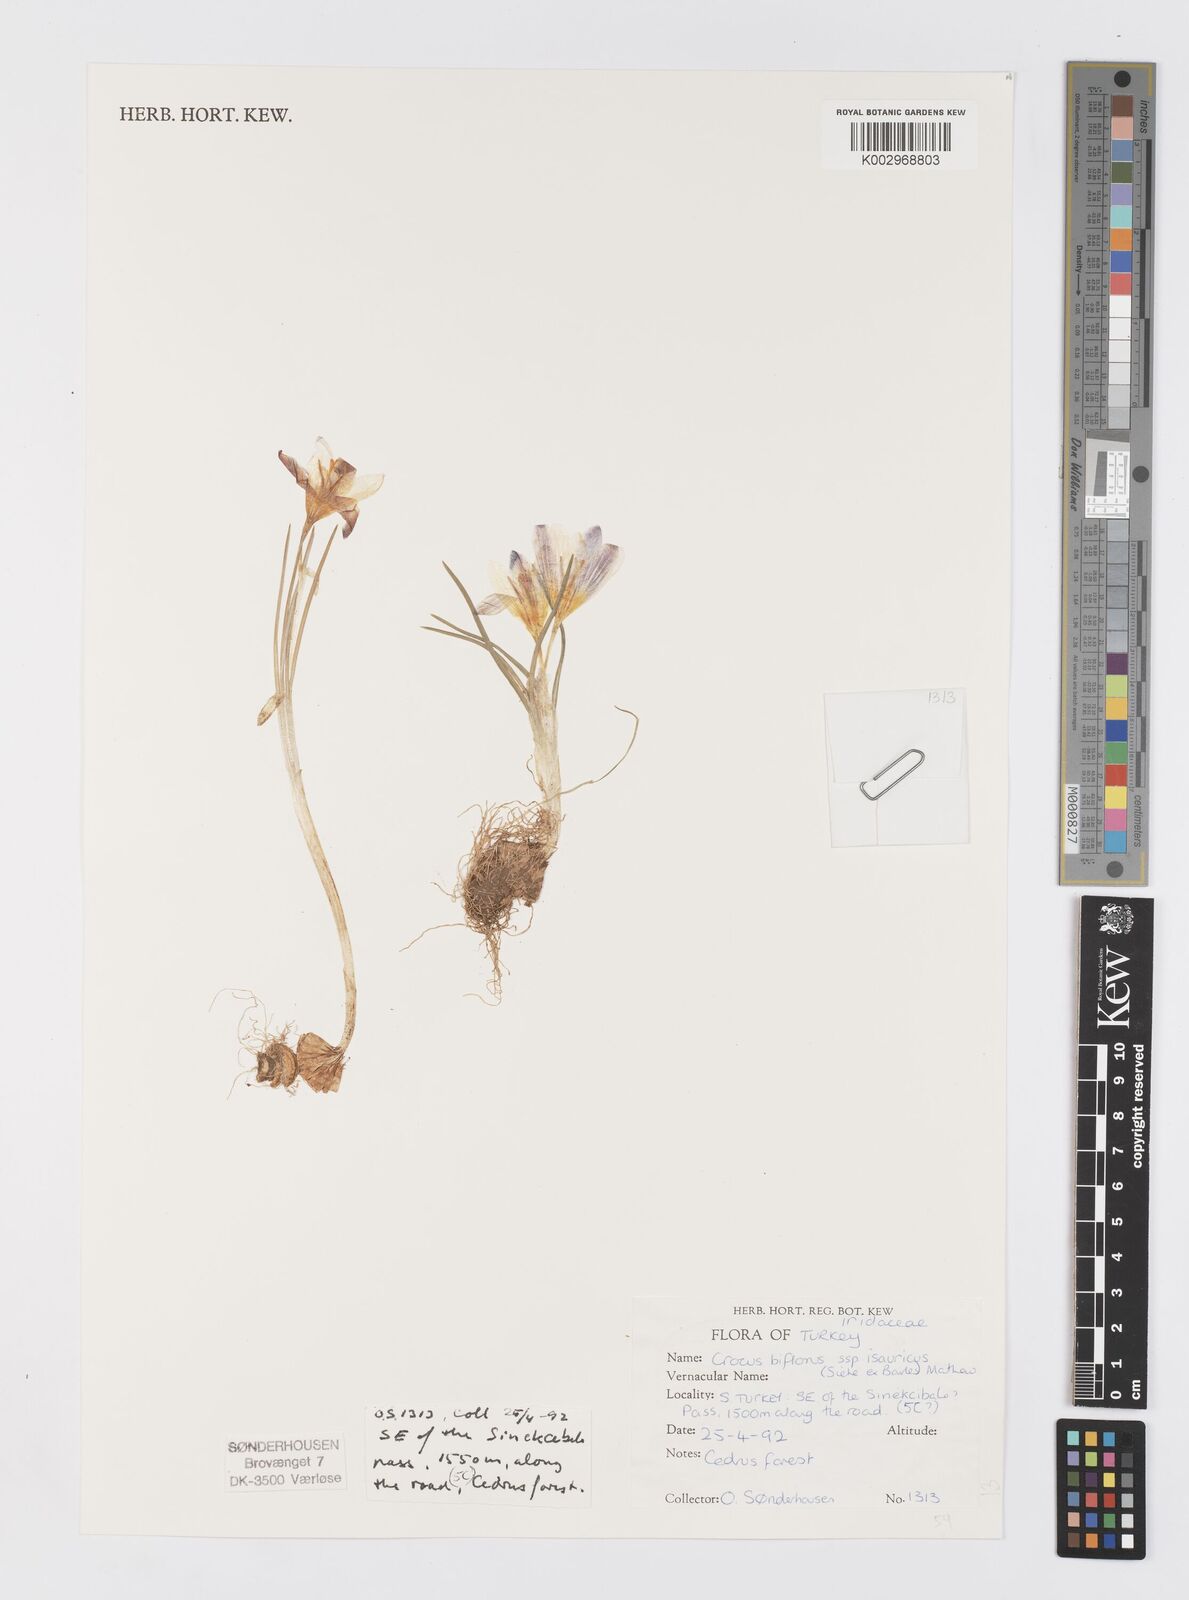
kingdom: Plantae
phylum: Tracheophyta
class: Liliopsida
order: Asparagales
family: Iridaceae
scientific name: Iridaceae
